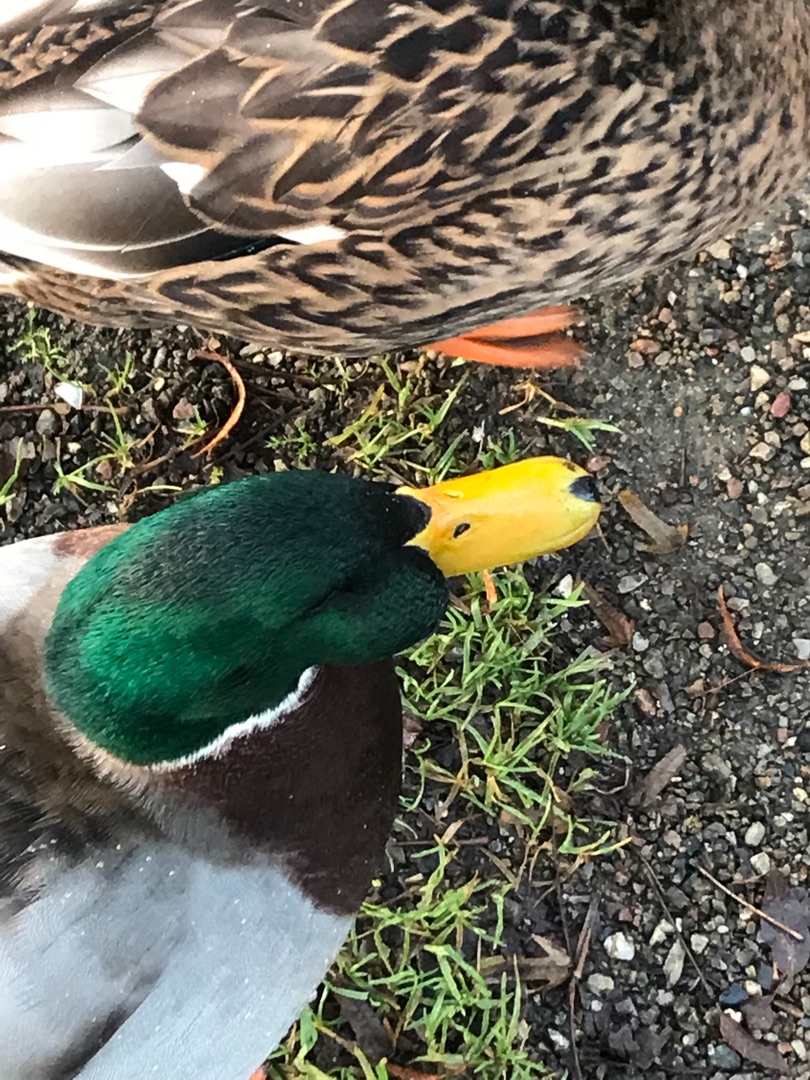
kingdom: Animalia
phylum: Chordata
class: Aves
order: Anseriformes
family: Anatidae
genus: Anas
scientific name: Anas platyrhynchos
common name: Gråand
